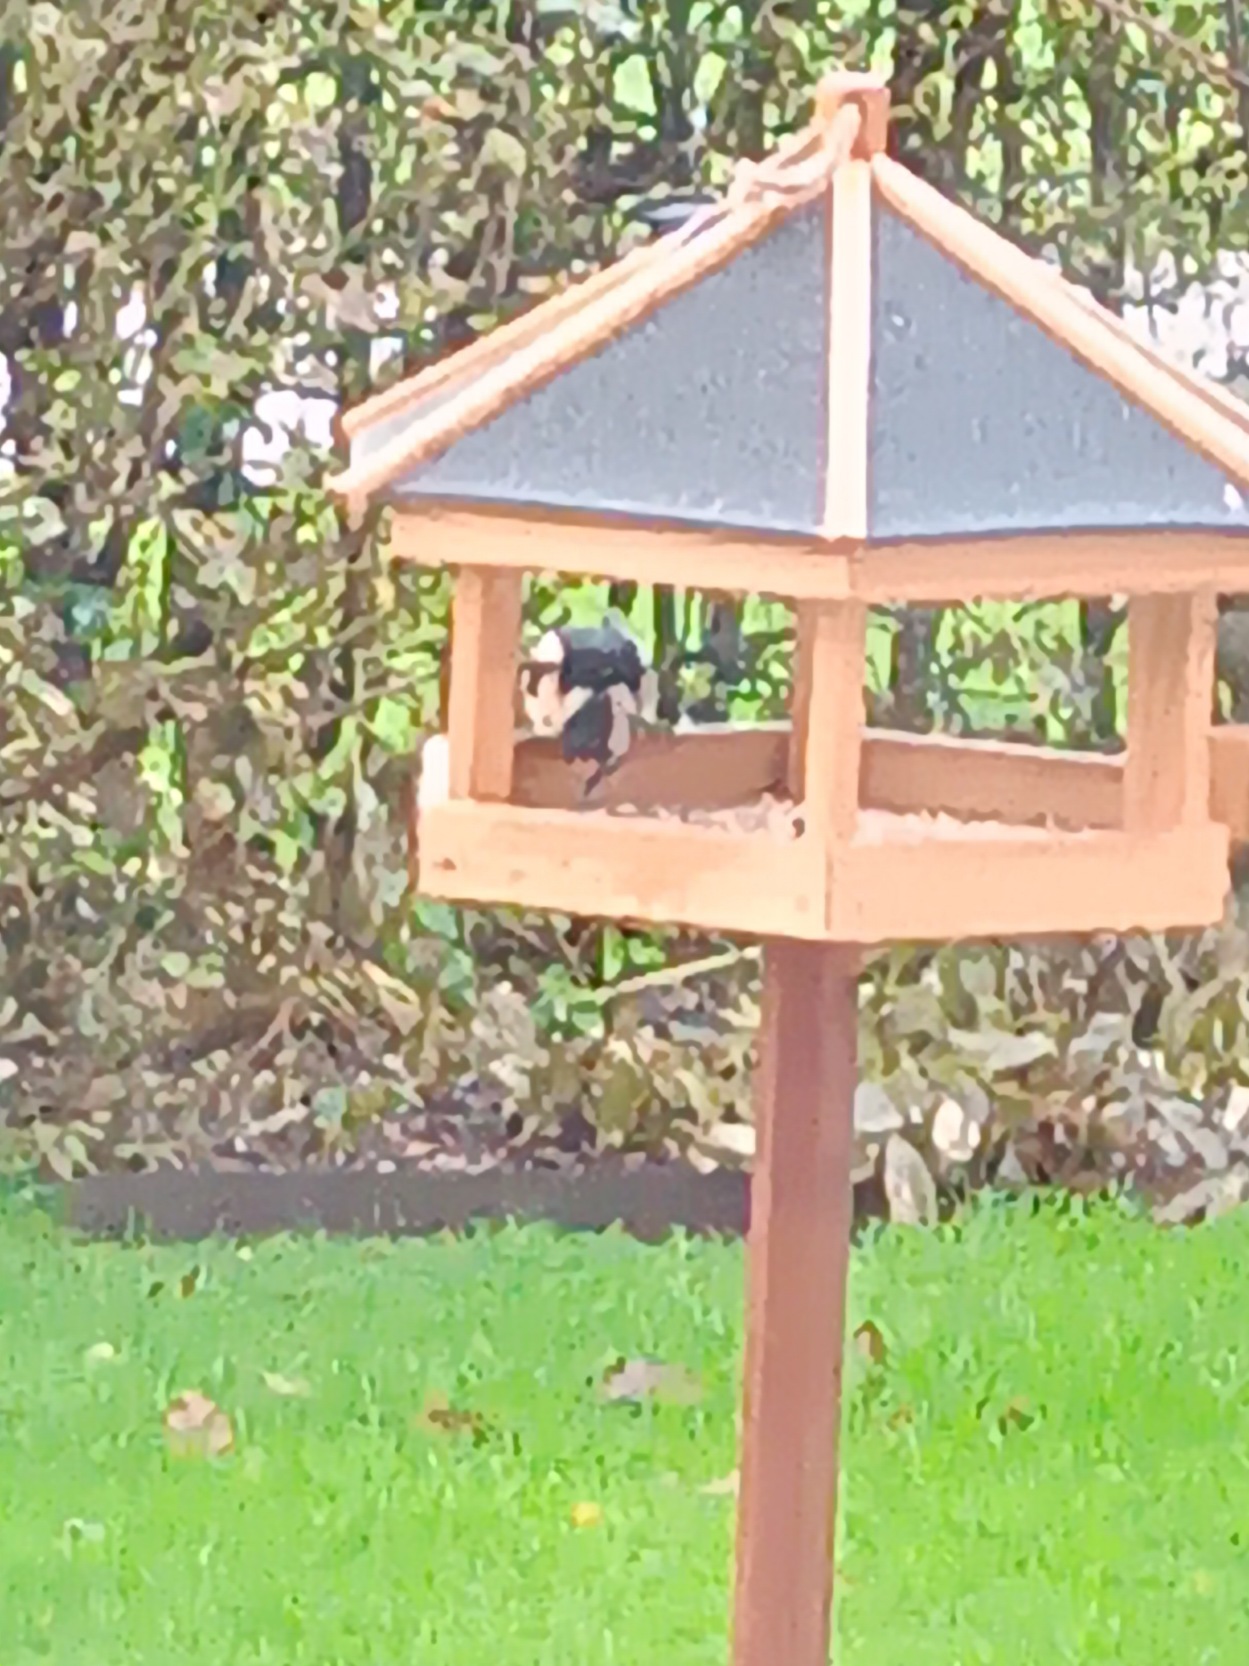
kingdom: Animalia
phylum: Chordata
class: Aves
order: Piciformes
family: Picidae
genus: Dendrocopos
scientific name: Dendrocopos major
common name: Stor flagspætte
